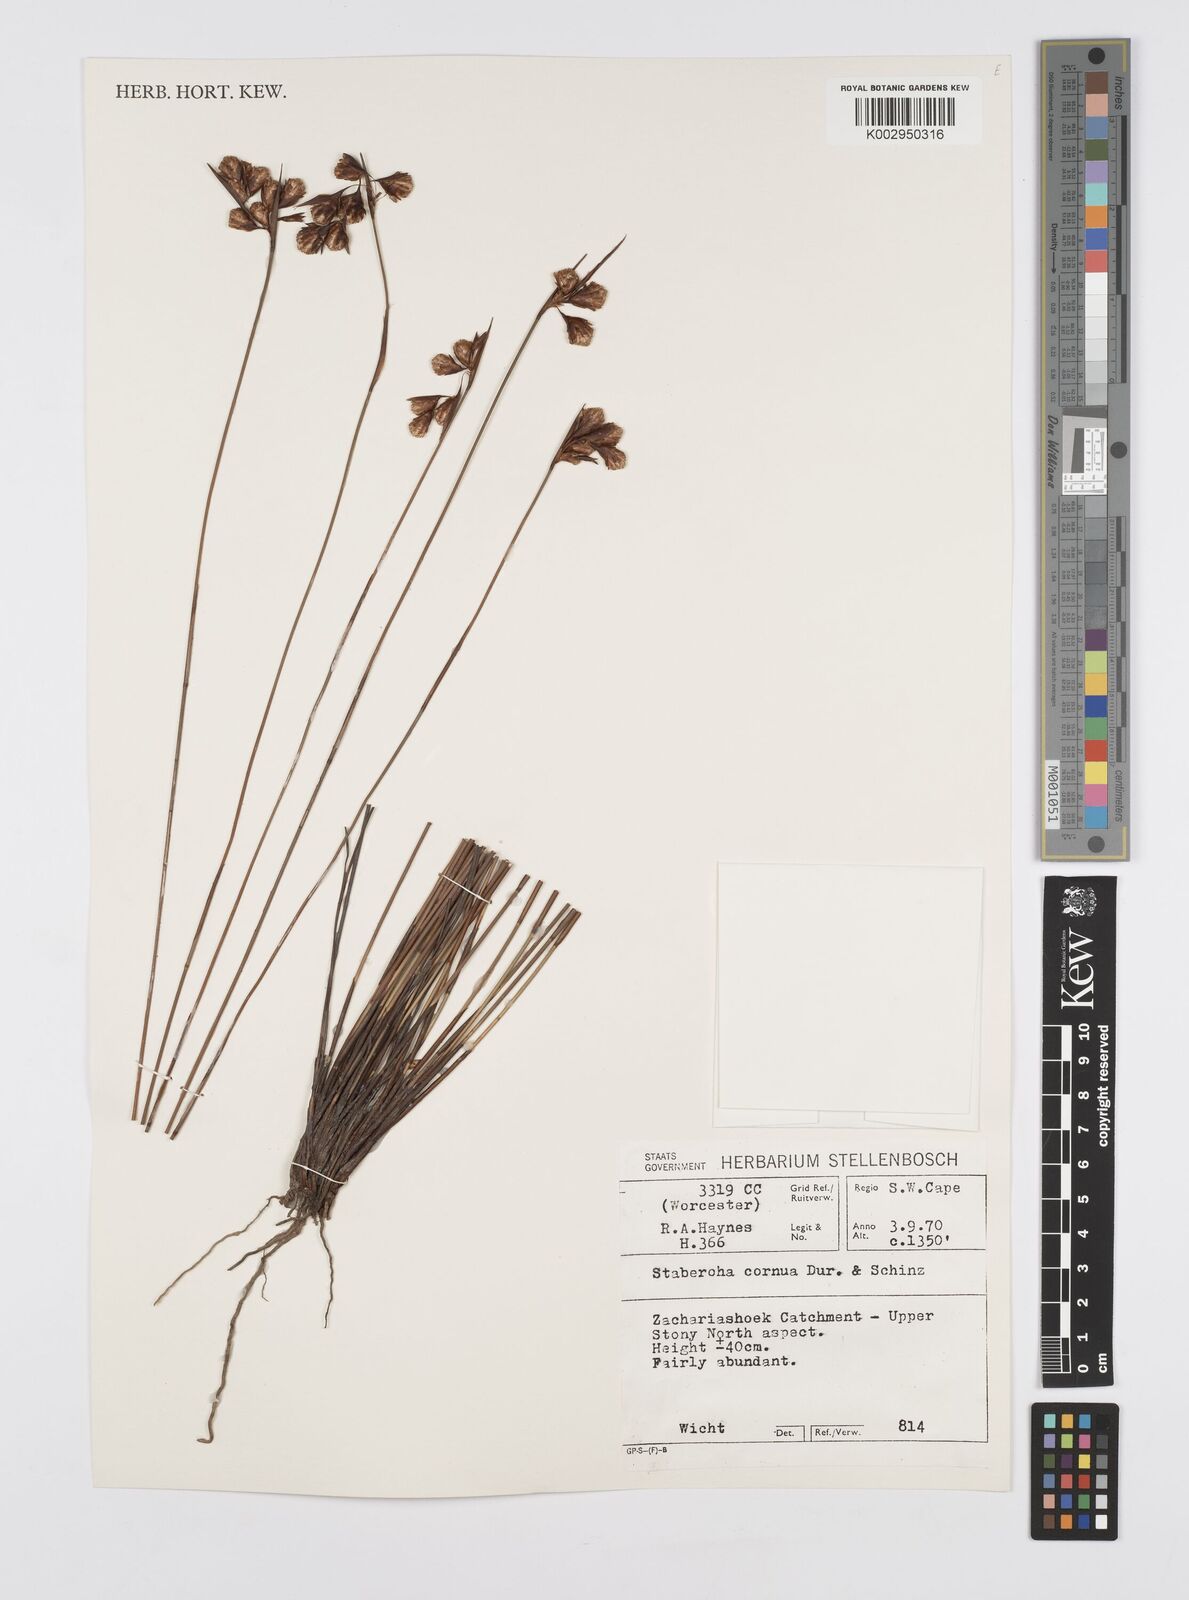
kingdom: Plantae
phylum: Tracheophyta
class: Liliopsida
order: Poales
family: Restionaceae
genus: Staberoha
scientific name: Staberoha cernua
